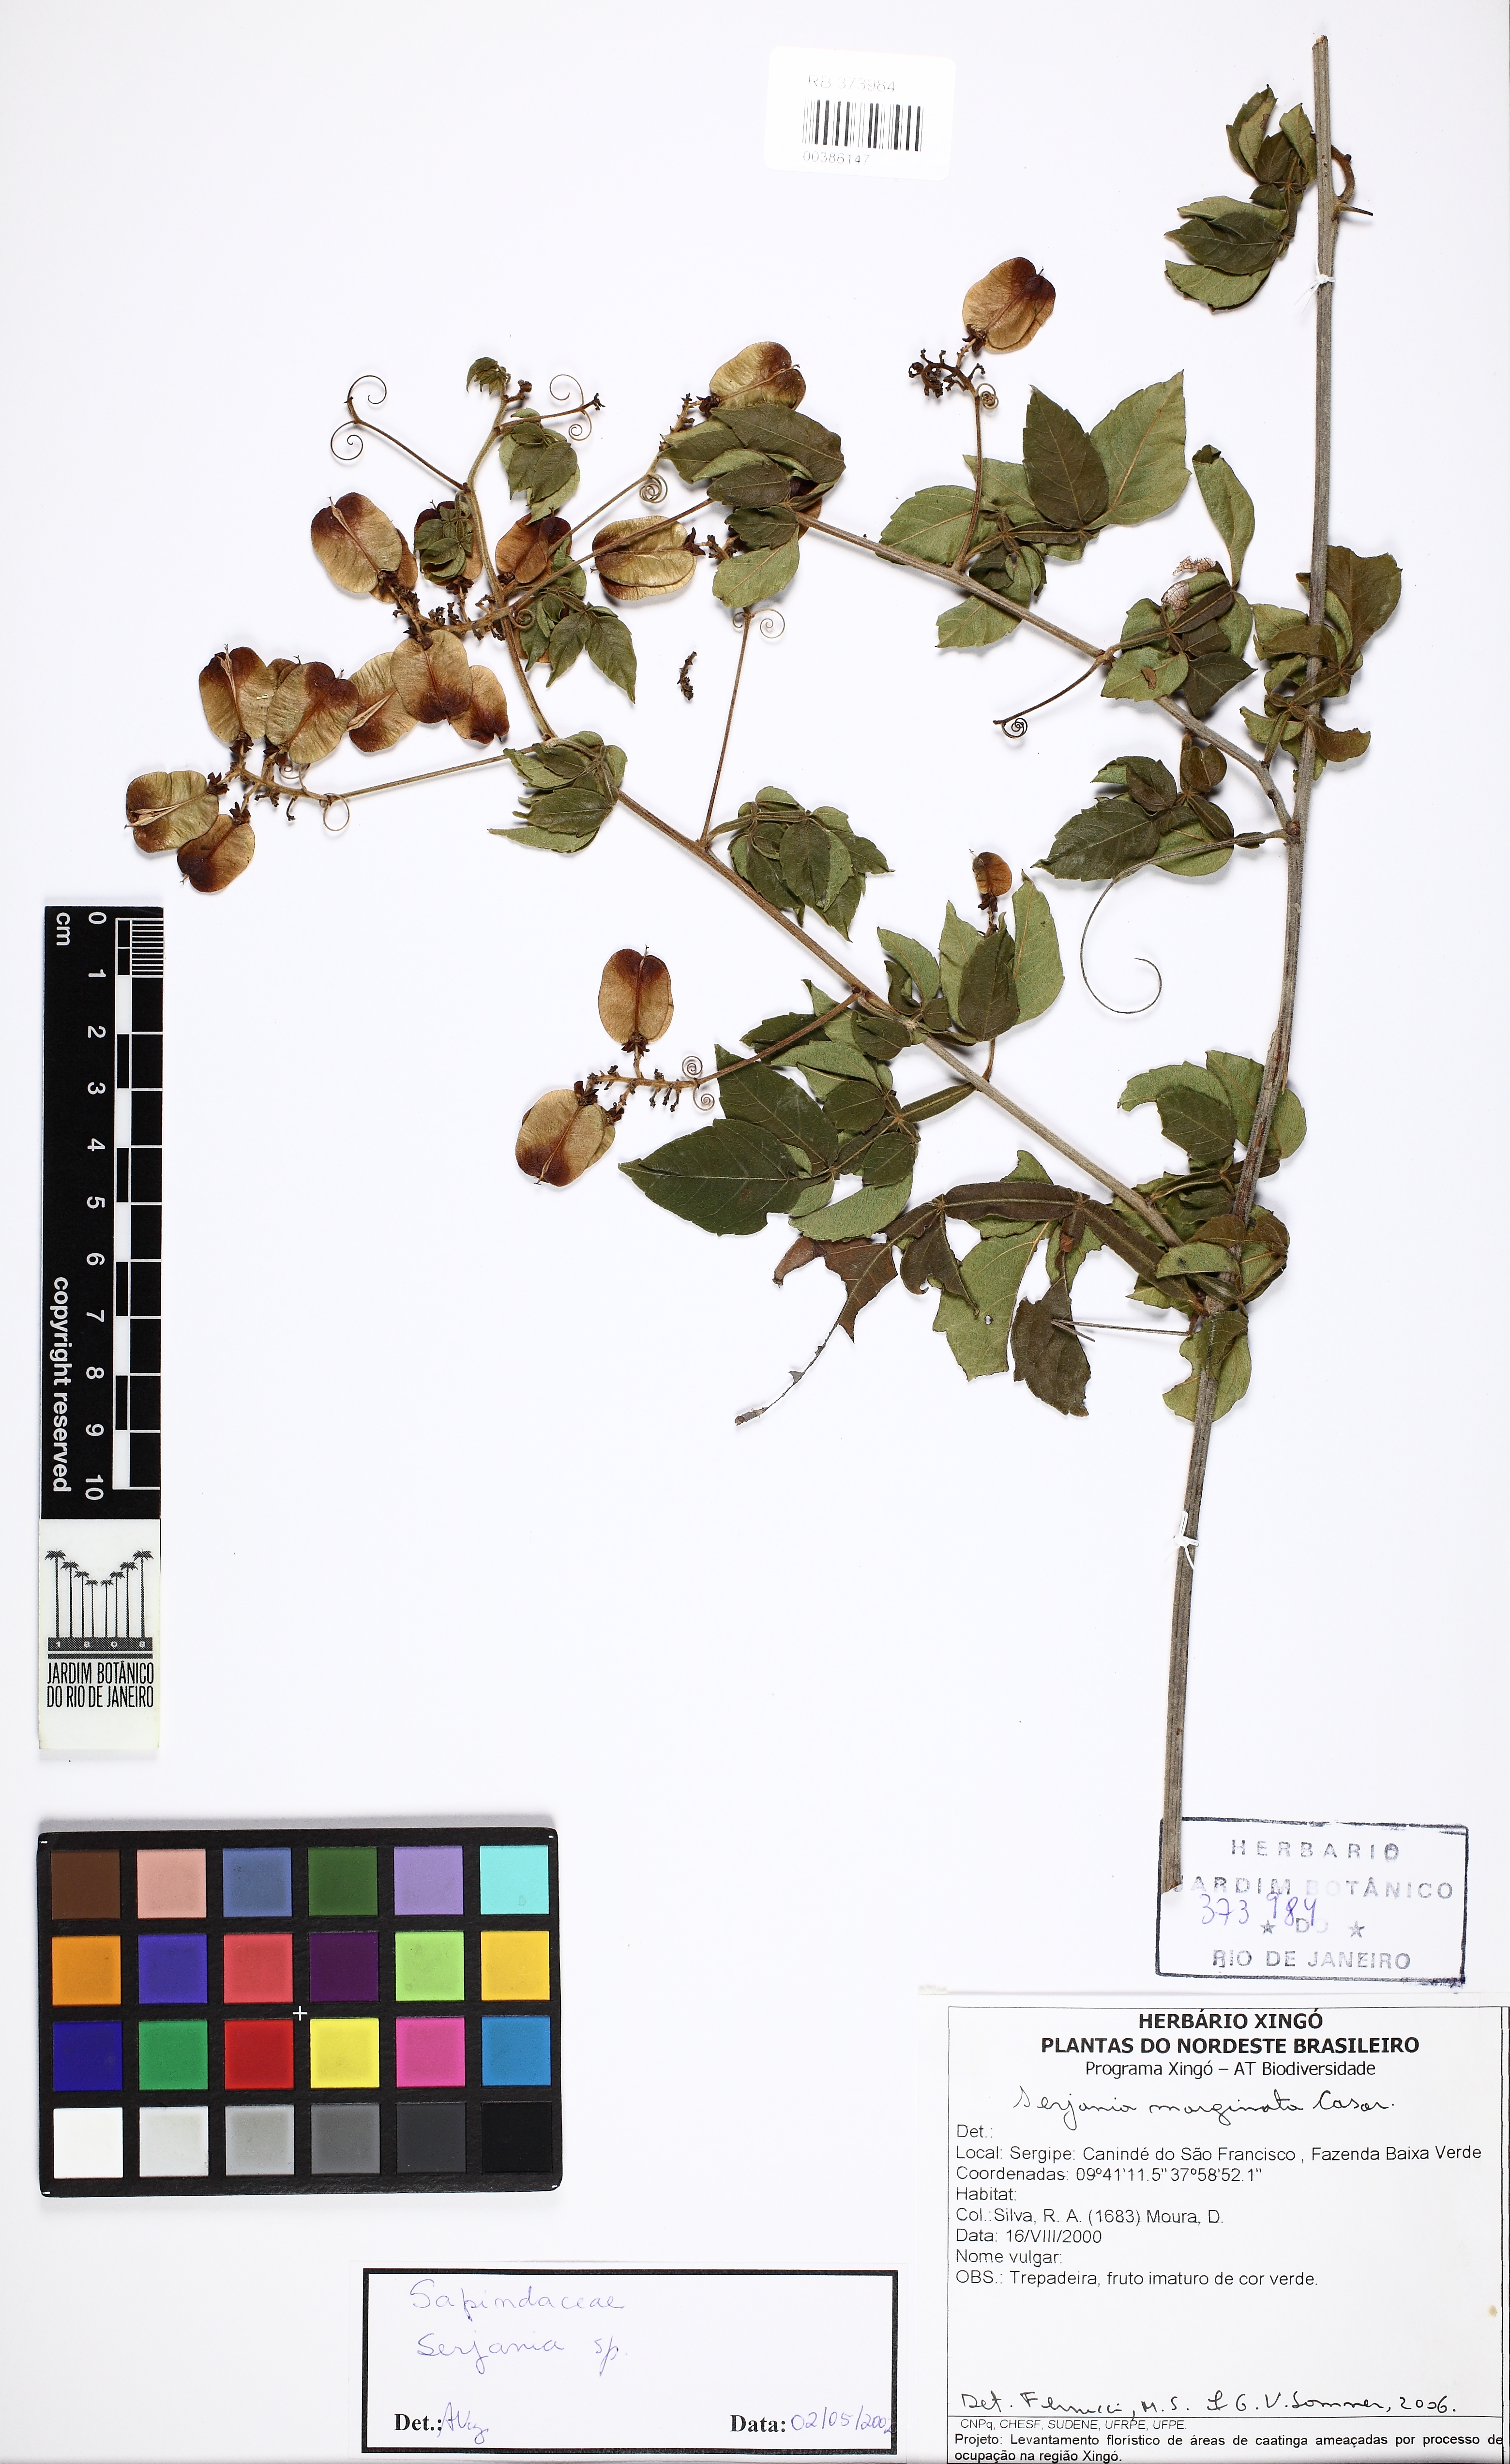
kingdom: Plantae
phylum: Tracheophyta
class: Magnoliopsida
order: Sapindales
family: Sapindaceae
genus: Serjania
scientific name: Serjania marginata
